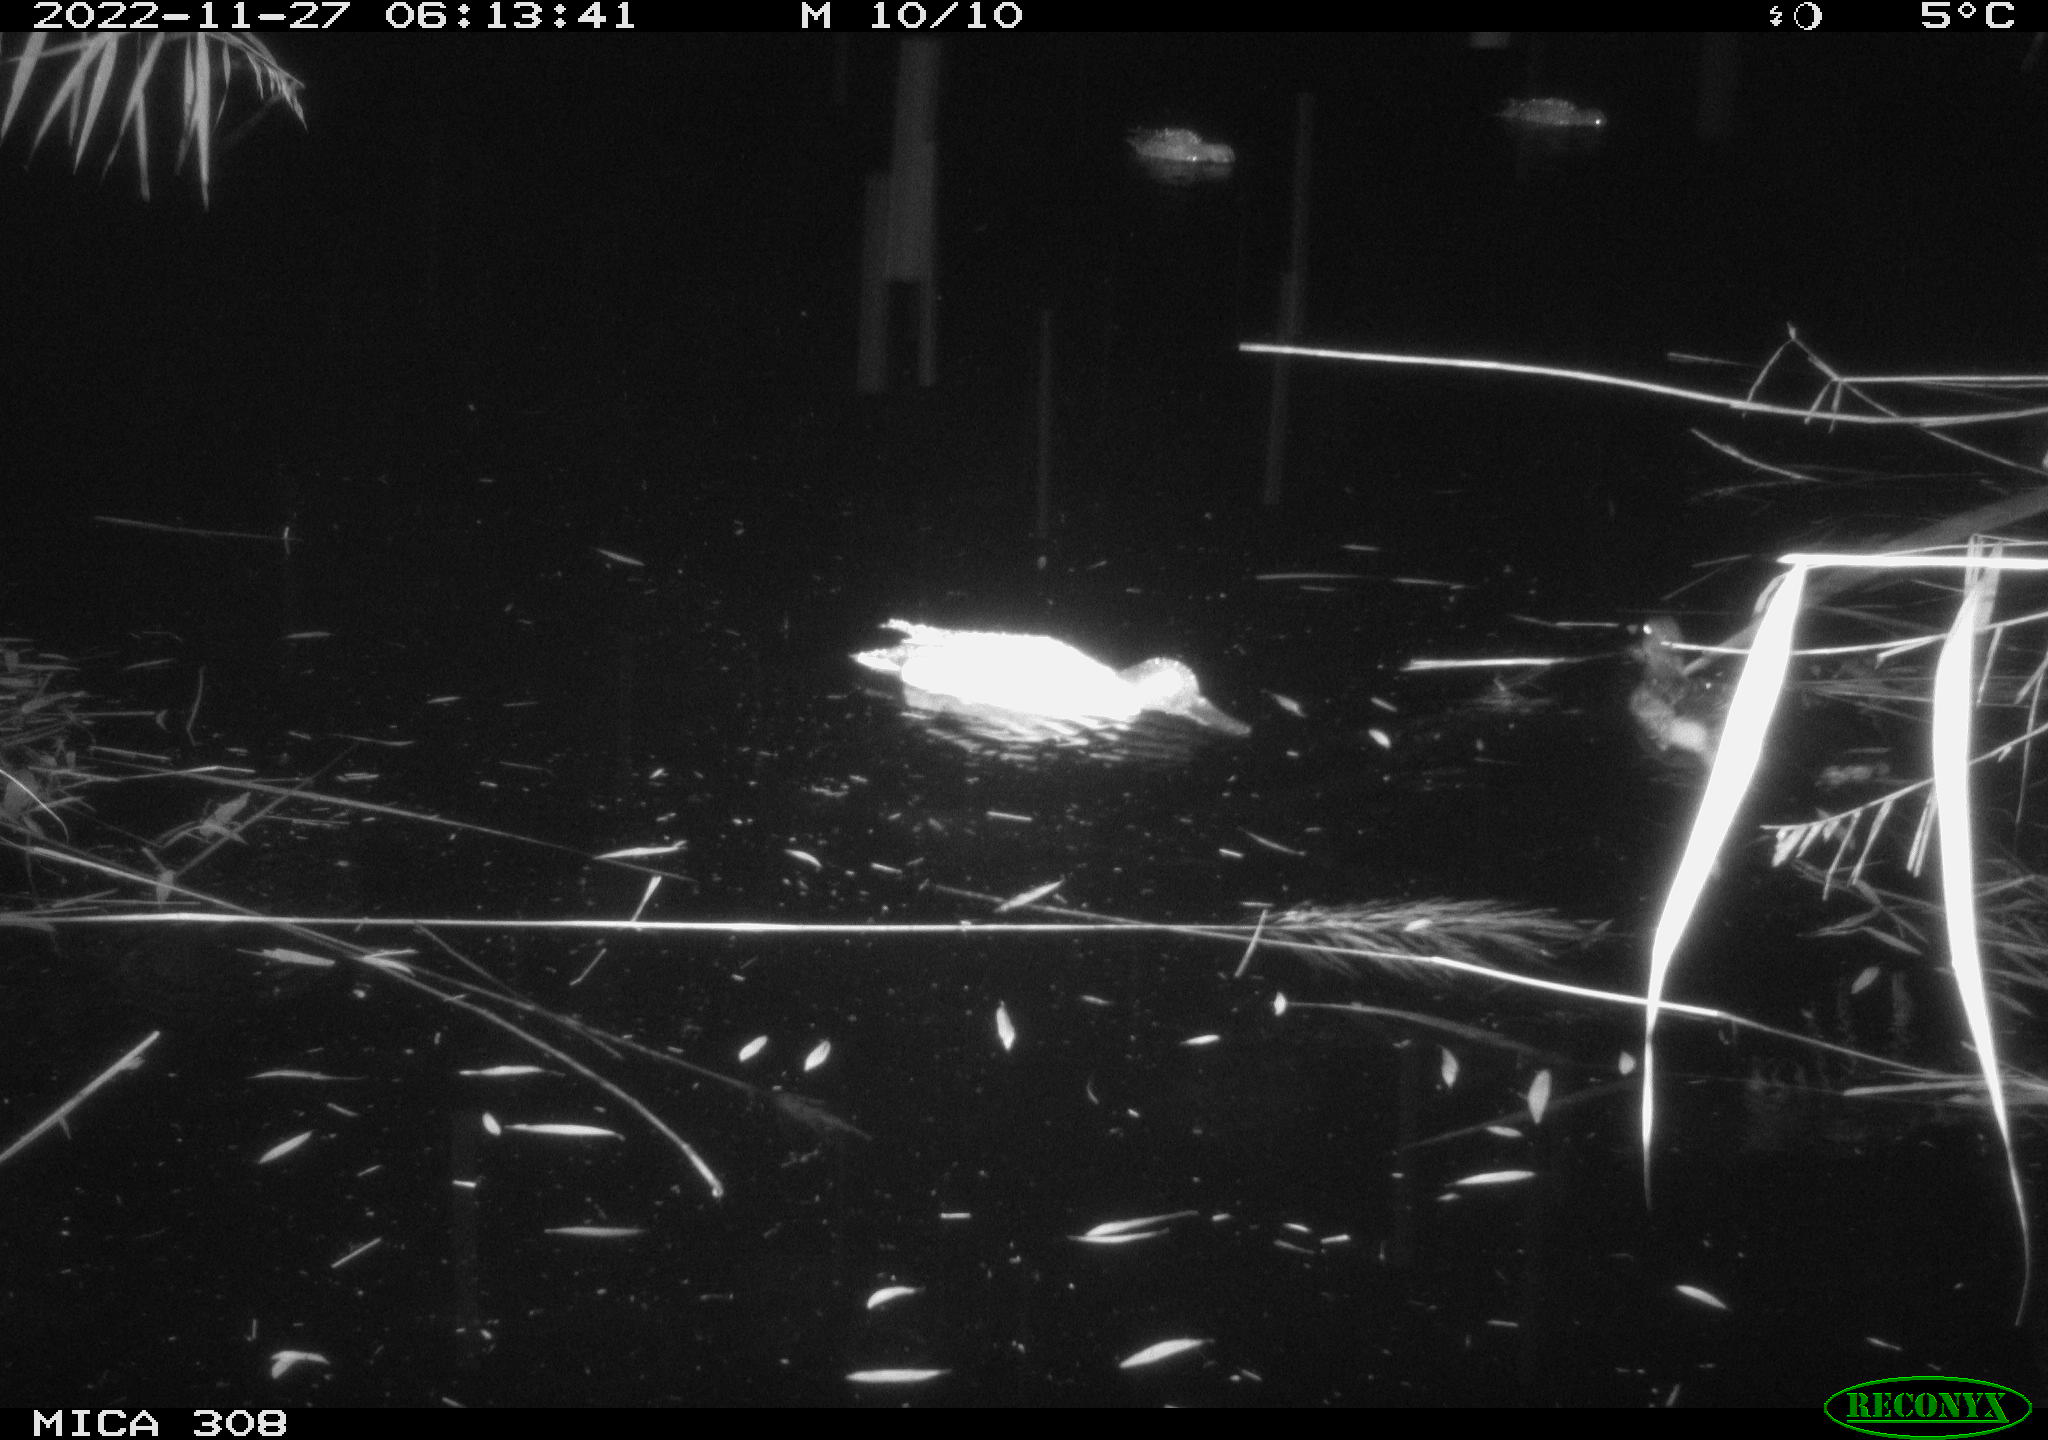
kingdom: Animalia
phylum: Chordata
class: Aves
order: Gruiformes
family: Rallidae
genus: Gallinula
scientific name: Gallinula chloropus
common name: Common moorhen
